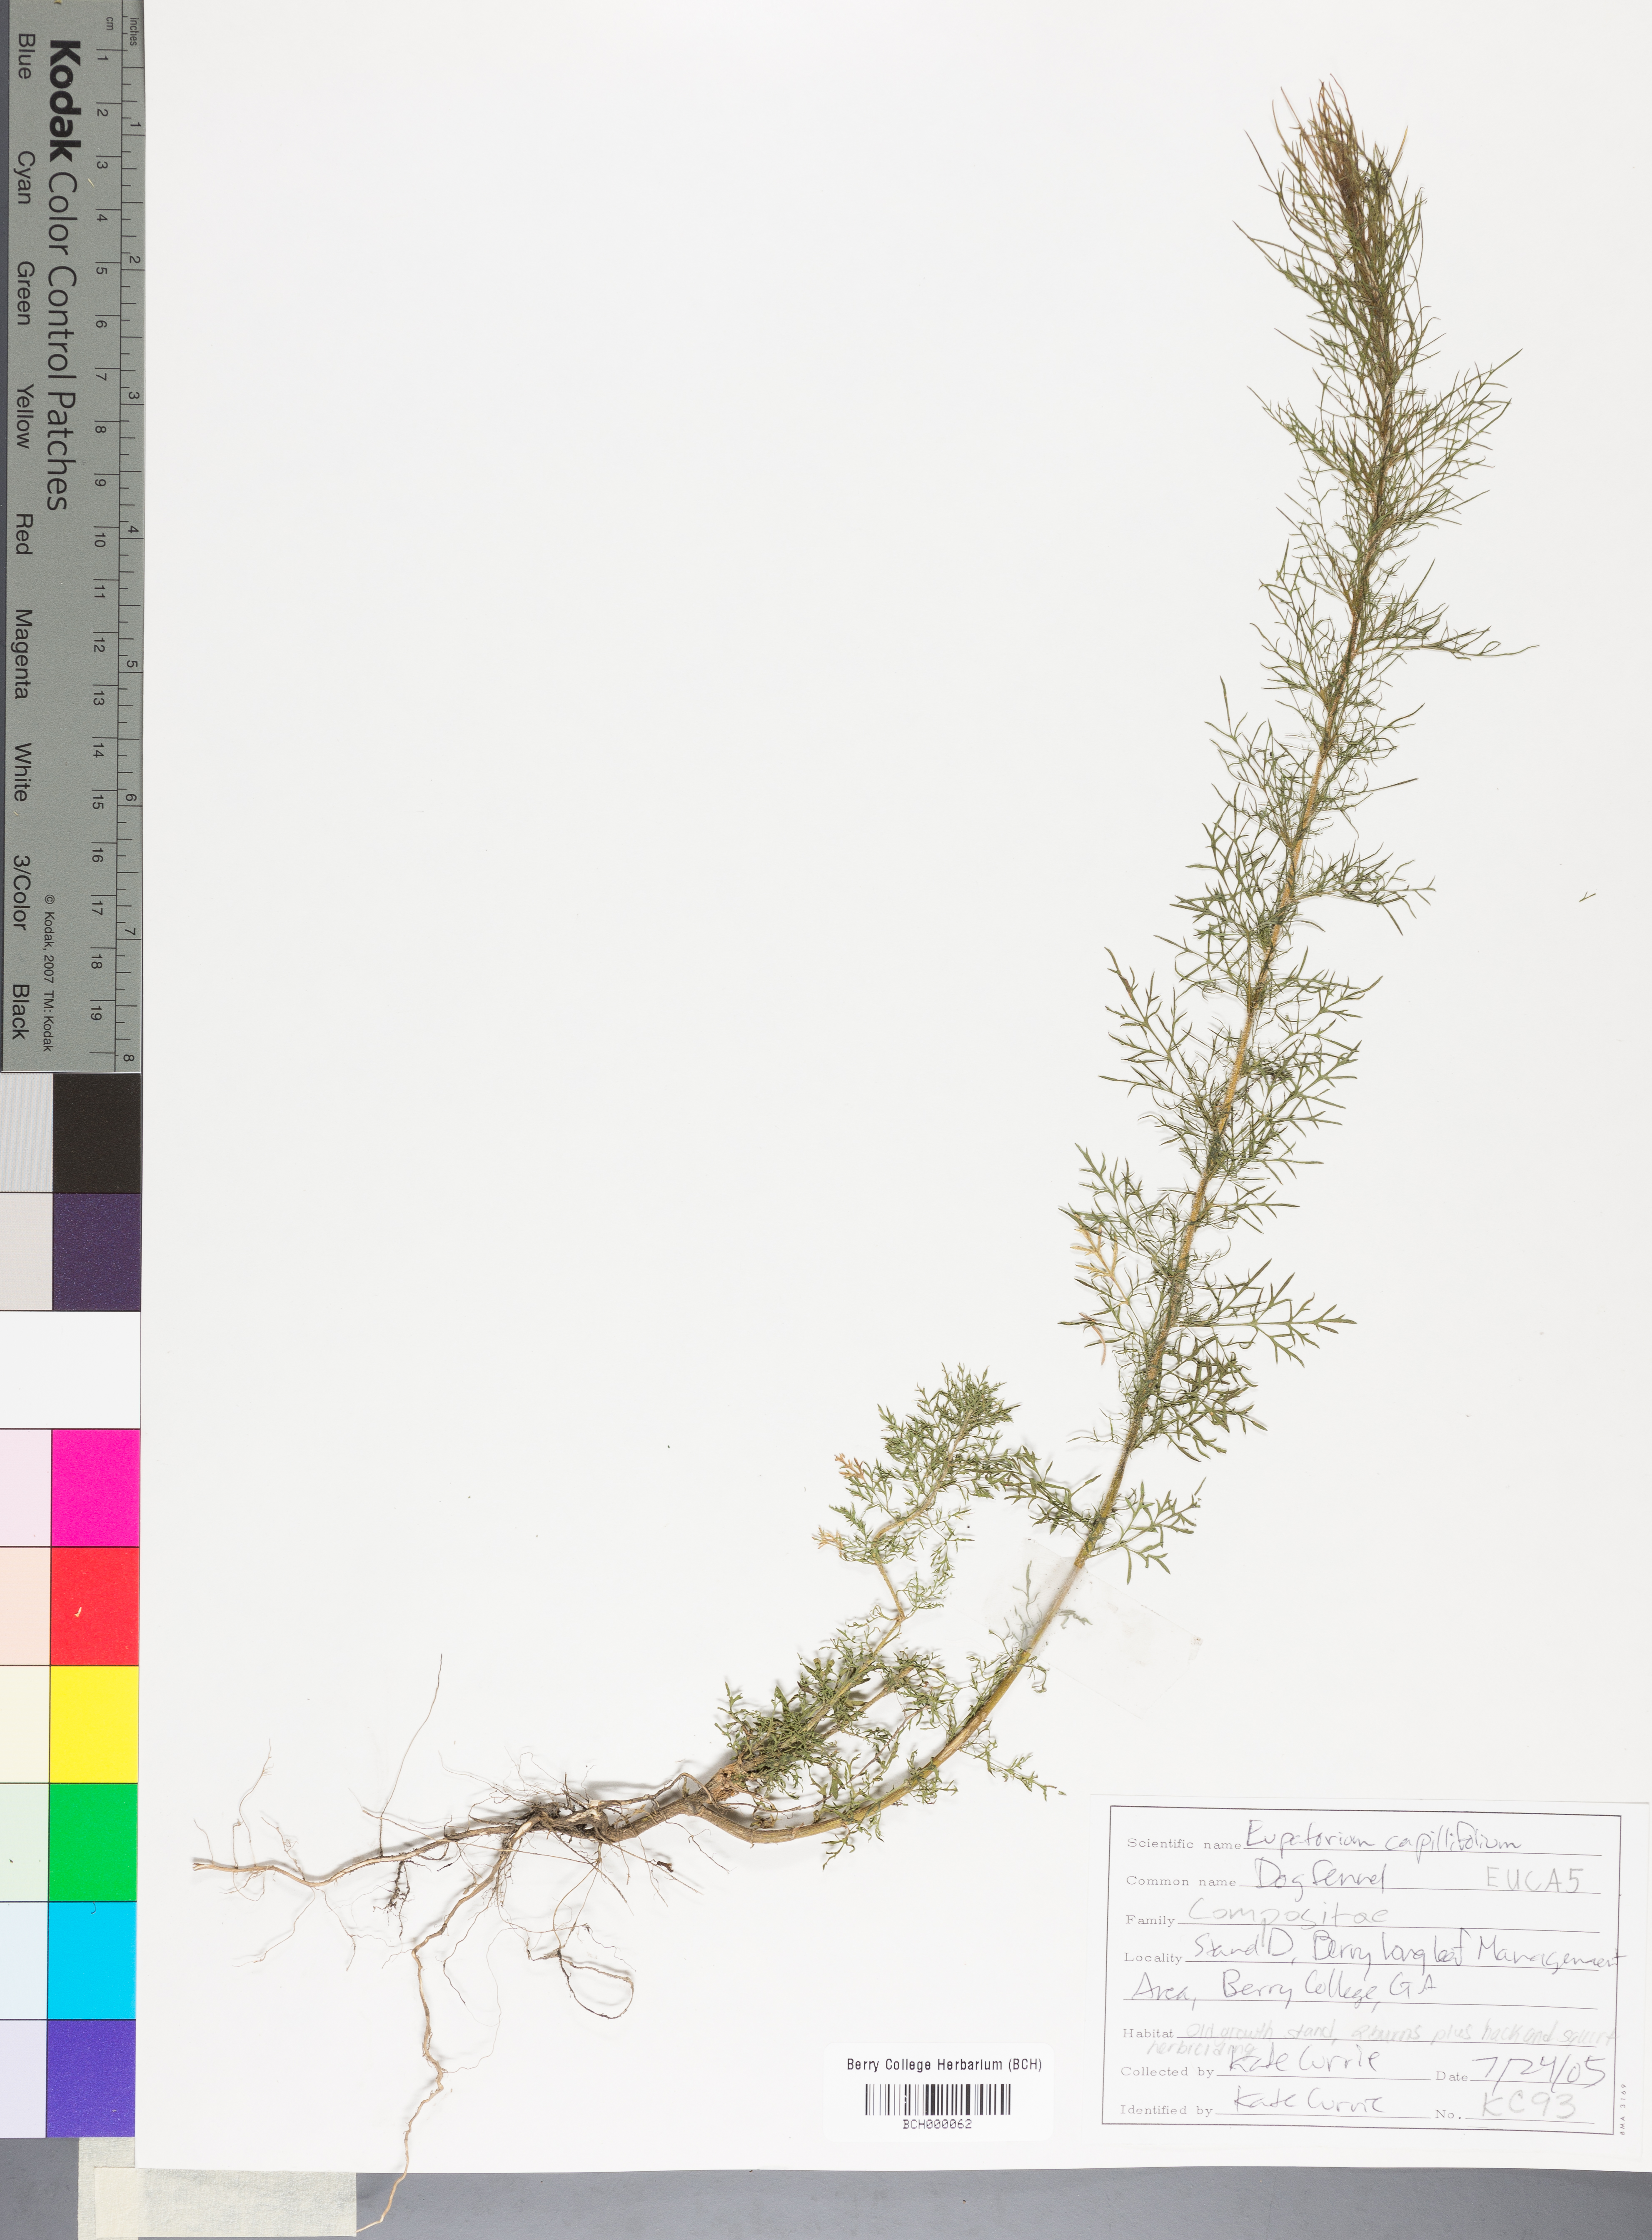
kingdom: Plantae
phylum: Tracheophyta
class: Magnoliopsida
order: Asterales
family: Asteraceae
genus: Eupatorium
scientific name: Eupatorium capillifolium
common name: Dog-fennel
